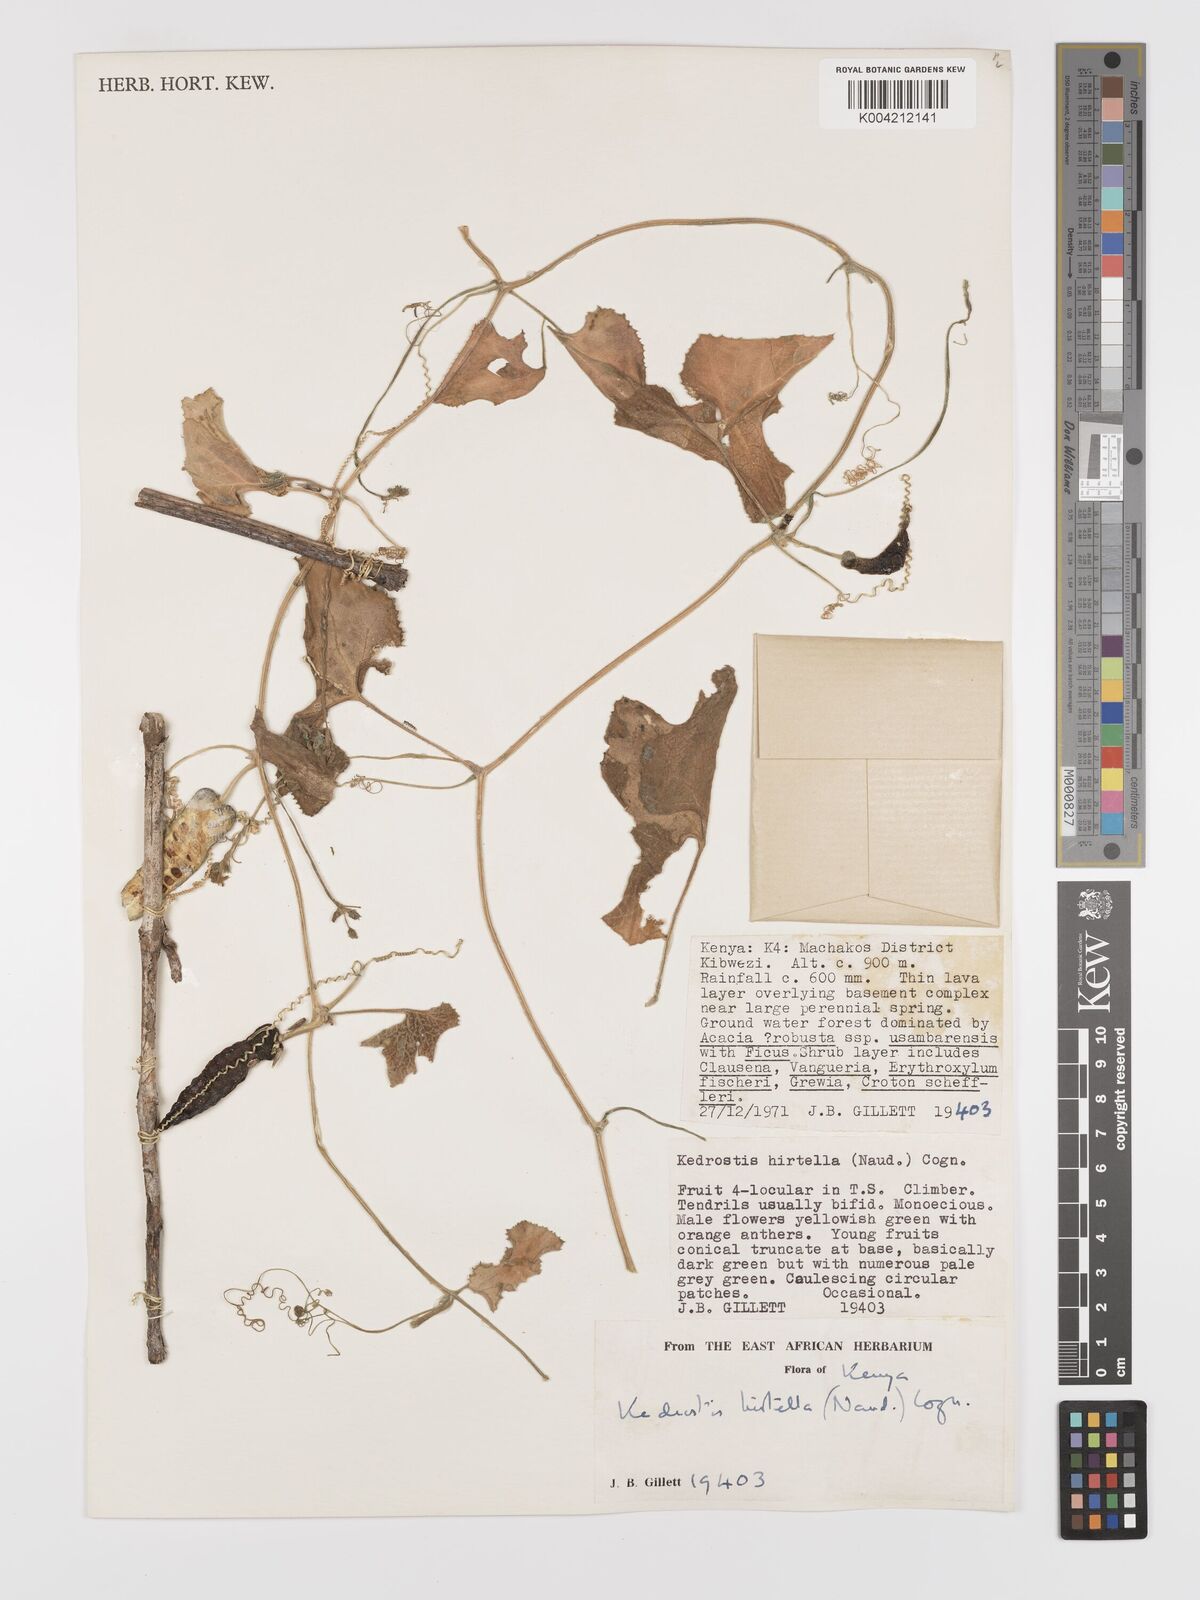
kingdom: Plantae
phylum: Tracheophyta
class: Magnoliopsida
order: Cucurbitales
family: Cucurbitaceae
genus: Kedrostis
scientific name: Kedrostis leloja
